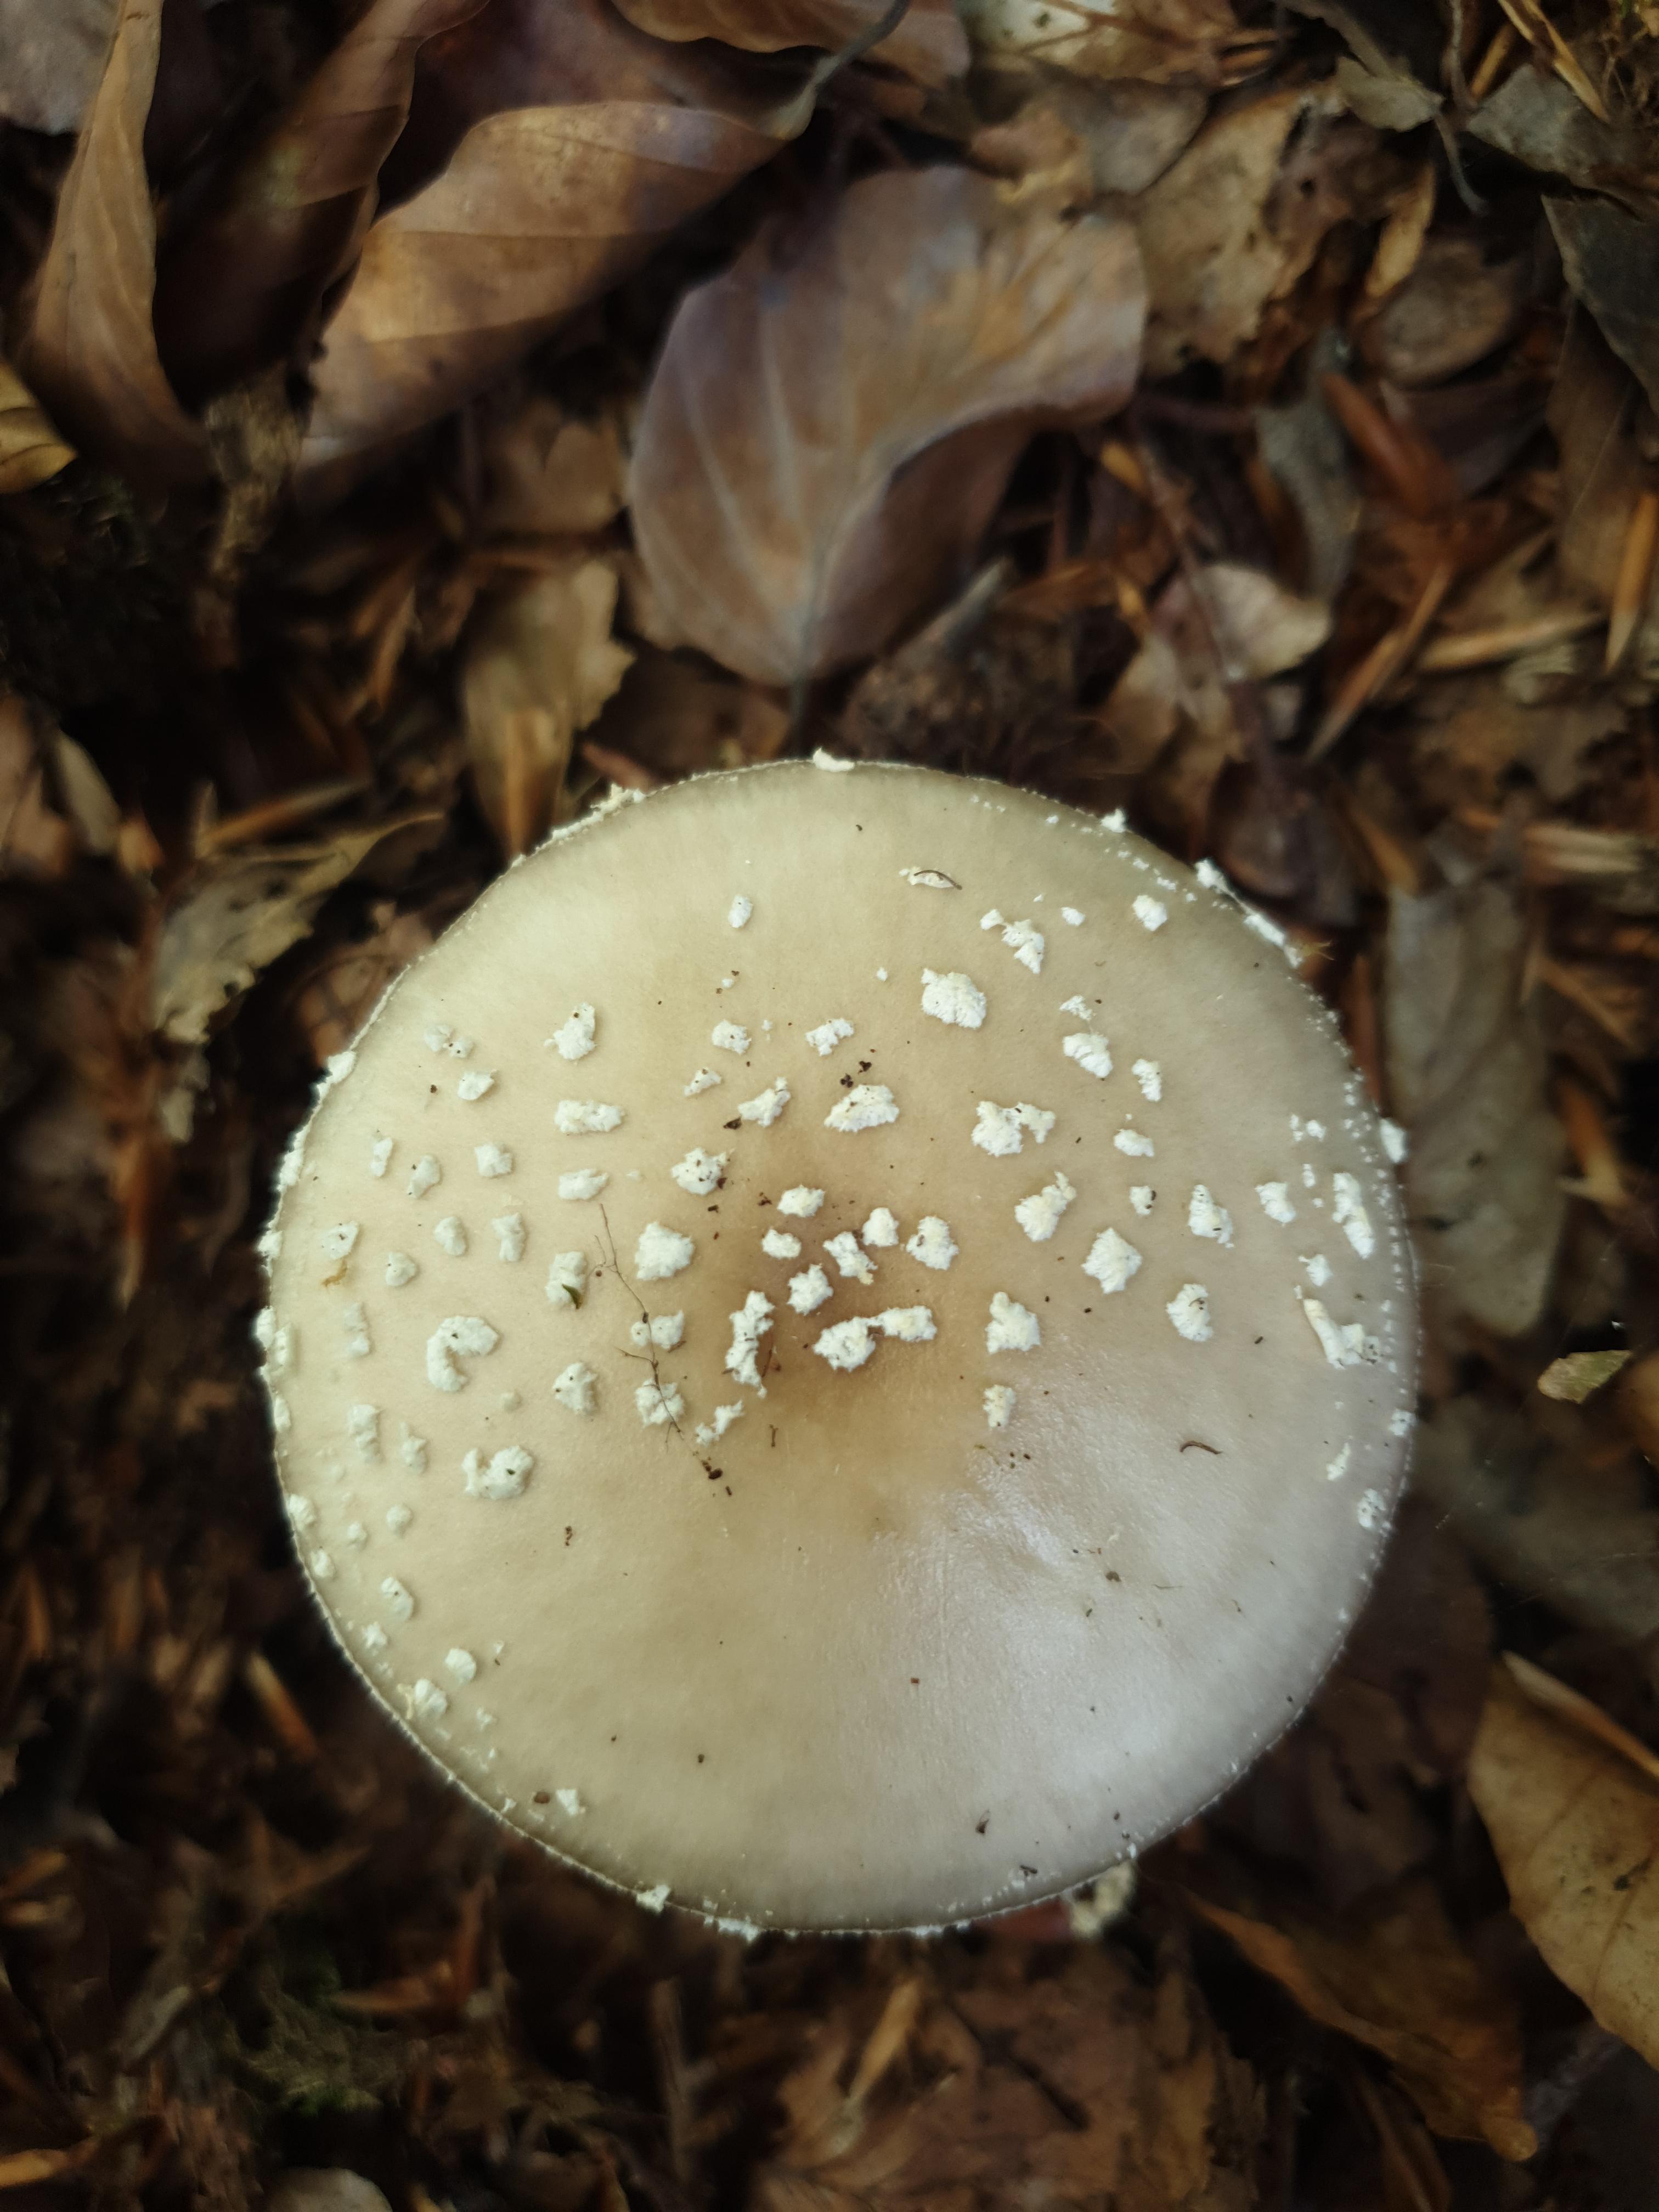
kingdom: Fungi
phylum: Basidiomycota
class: Agaricomycetes
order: Agaricales
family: Amanitaceae
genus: Amanita
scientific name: Amanita pantherina
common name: panter-fluesvamp
